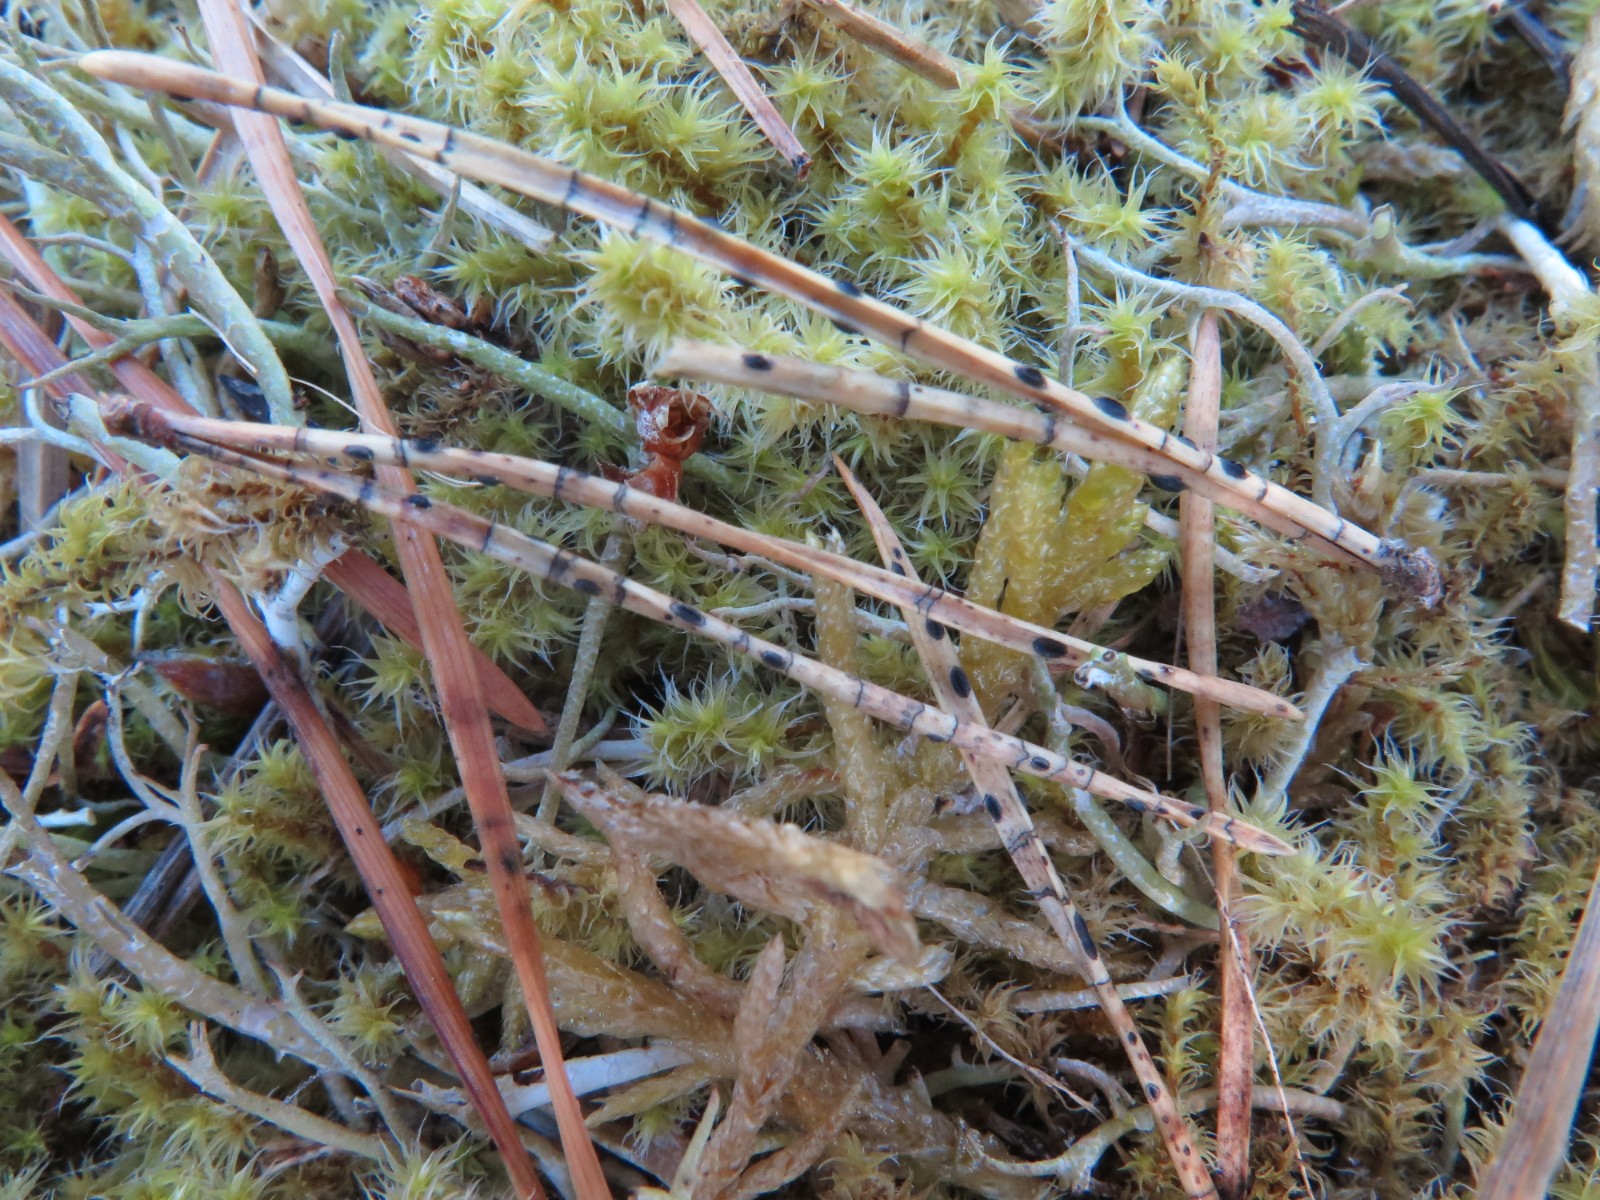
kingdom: Fungi
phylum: Ascomycota
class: Leotiomycetes
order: Rhytismatales
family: Rhytismataceae
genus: Lophodermium
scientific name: Lophodermium pinastri
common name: fyrre-fureplet
